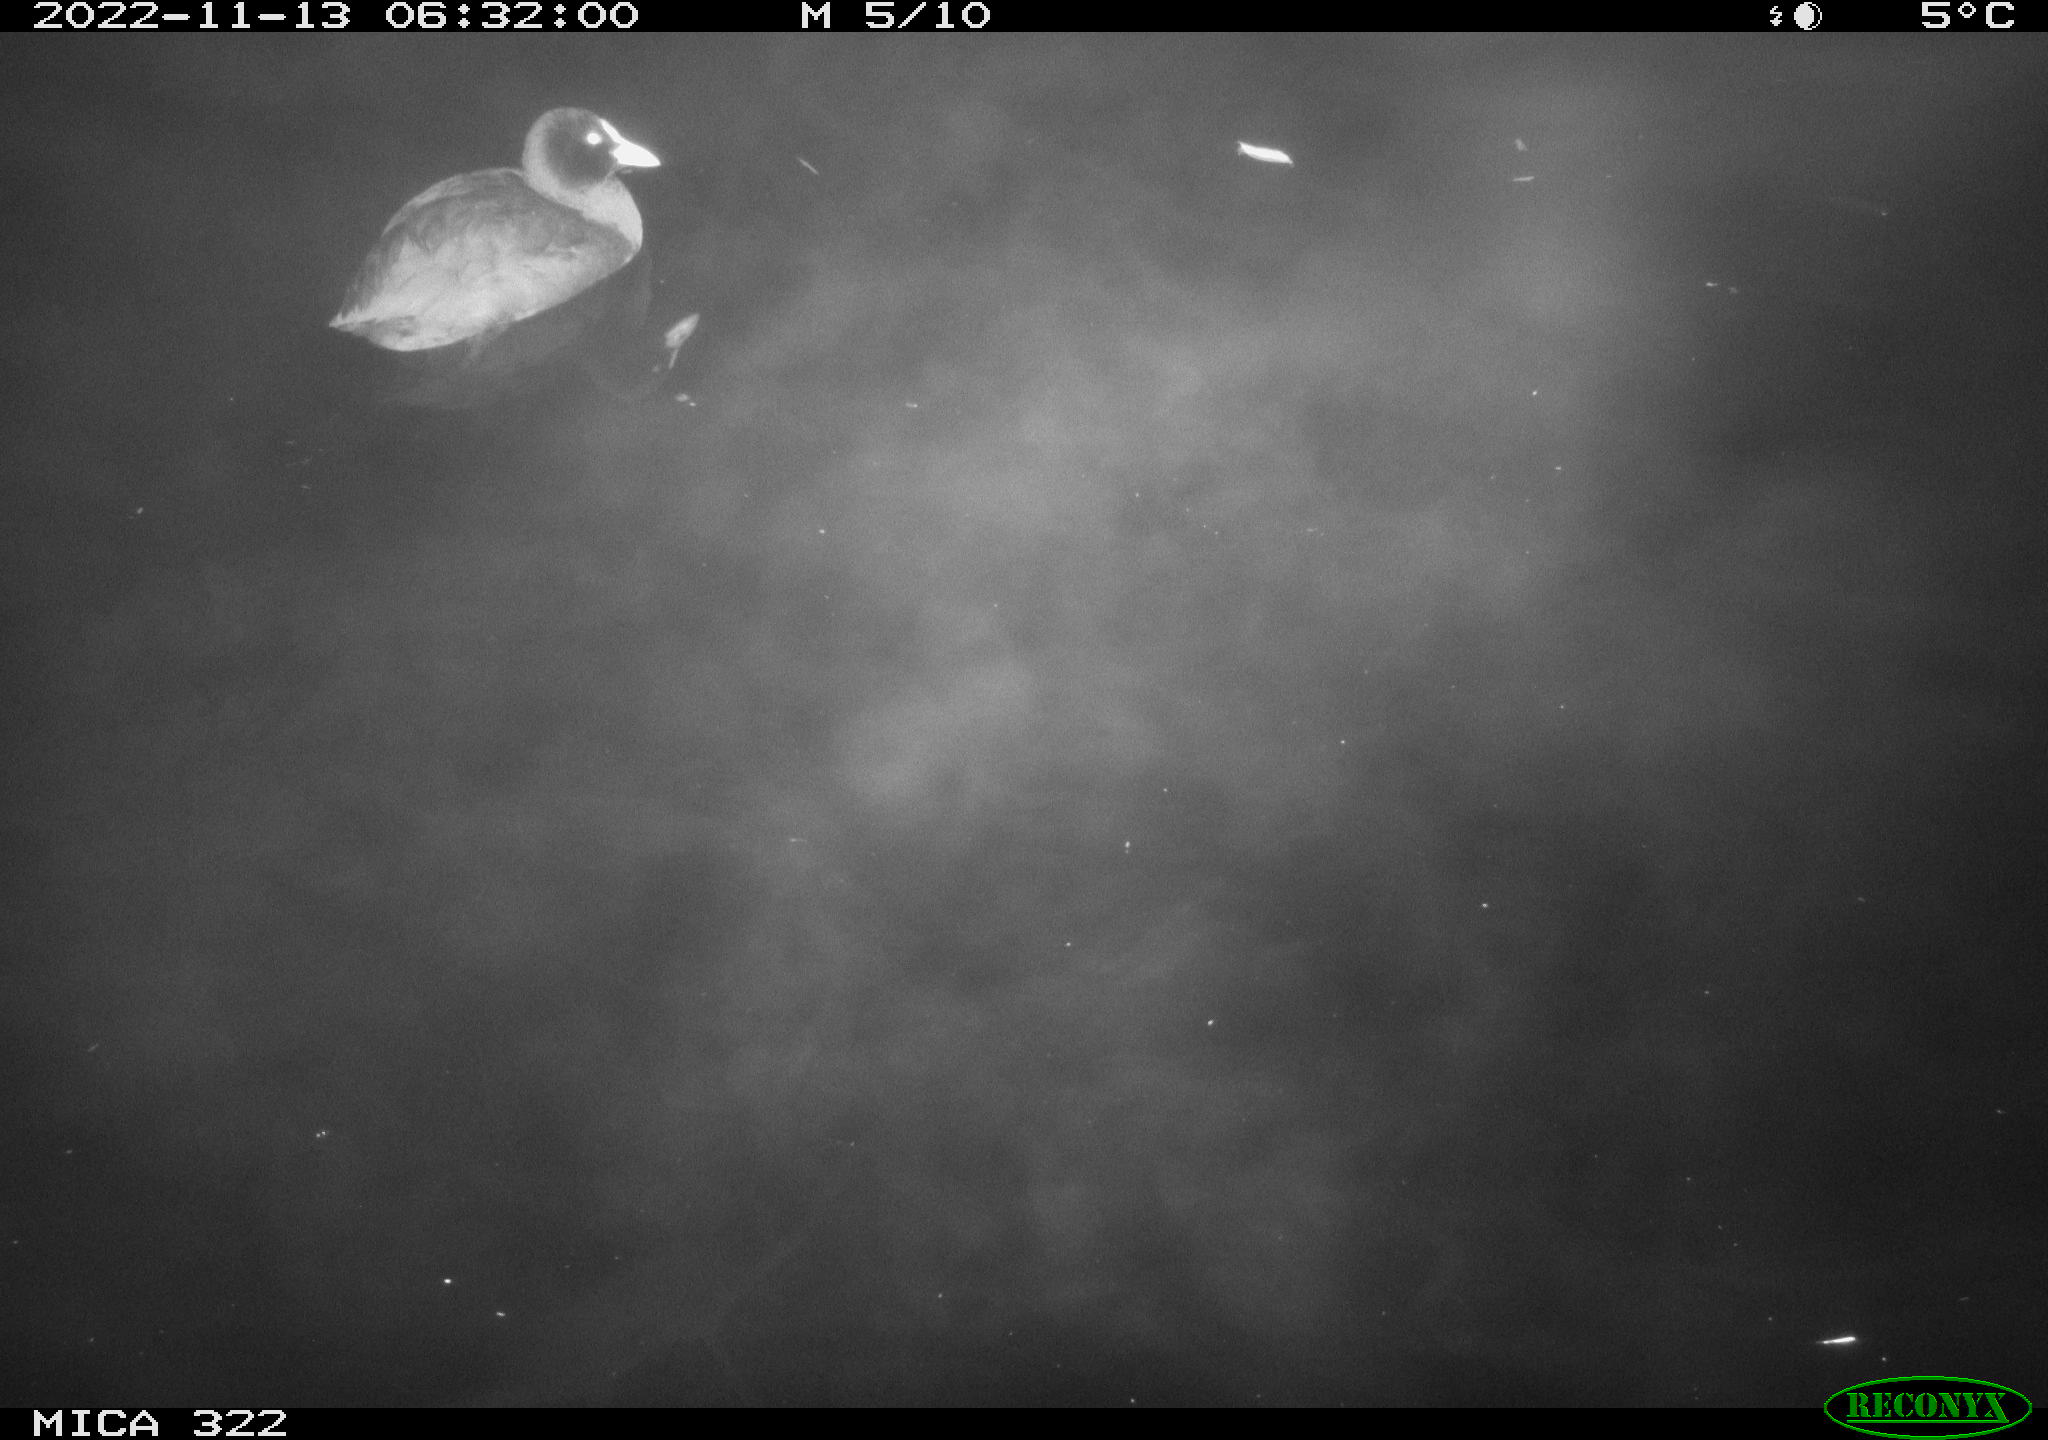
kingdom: Animalia
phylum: Chordata
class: Aves
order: Gruiformes
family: Rallidae
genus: Fulica
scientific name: Fulica atra
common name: Eurasian coot
